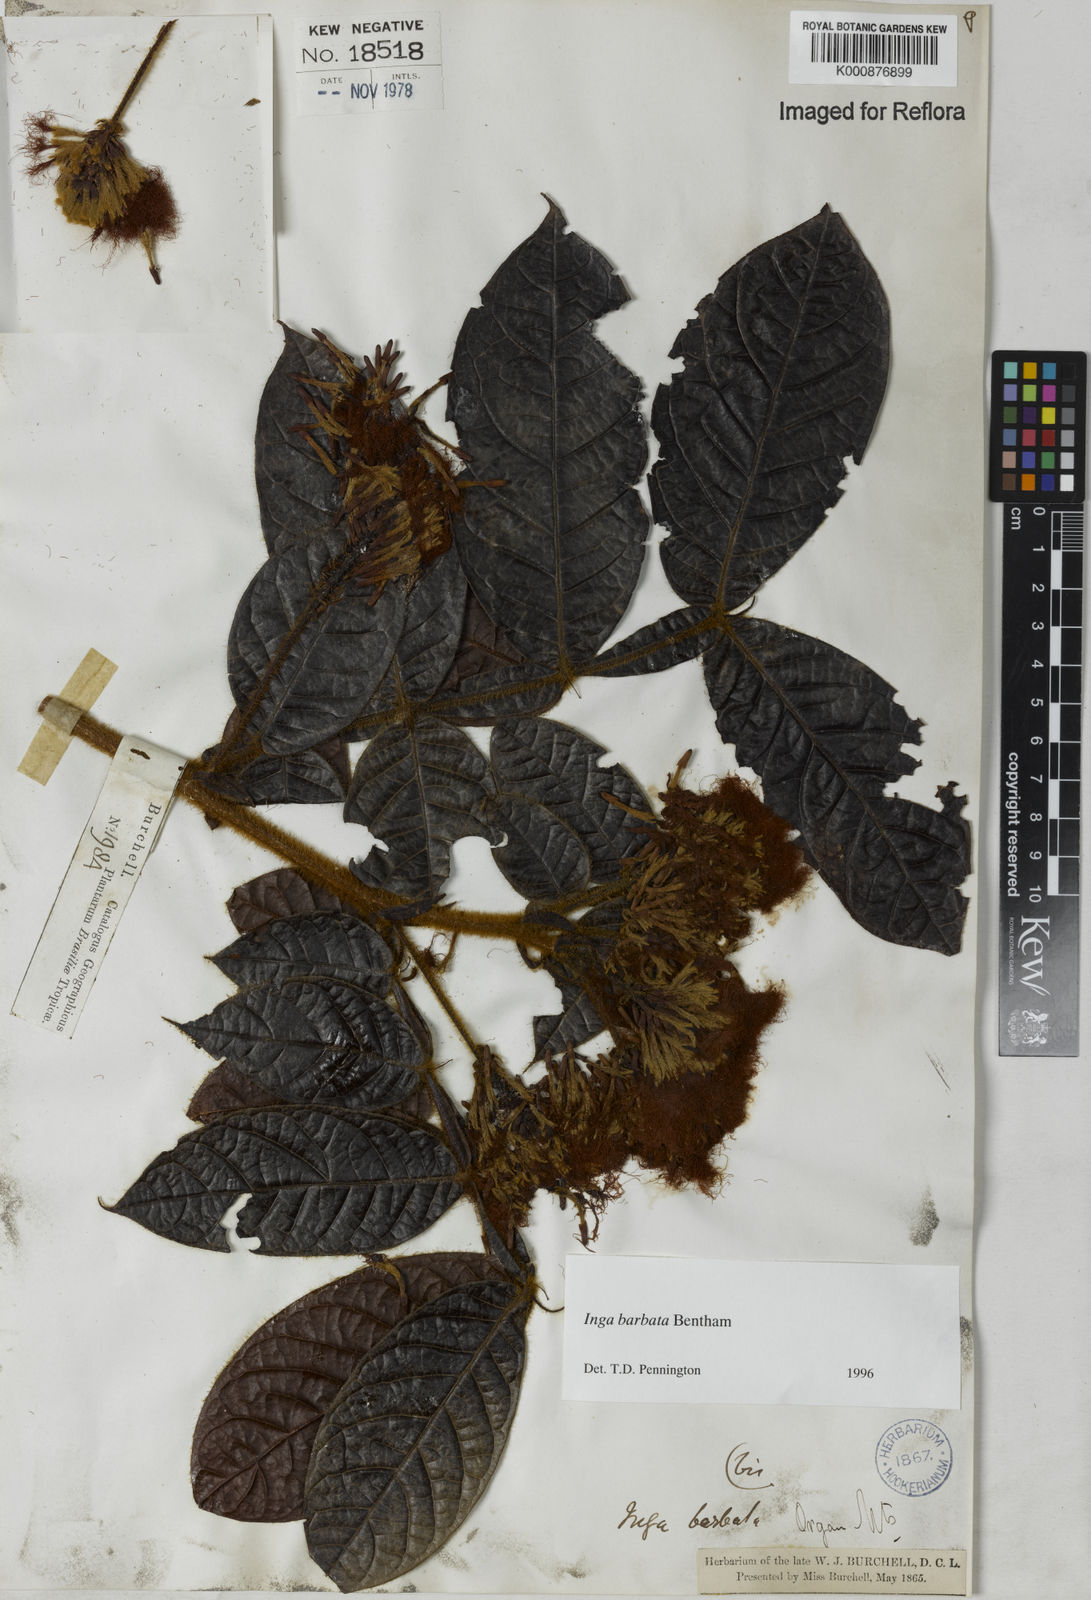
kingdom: Plantae
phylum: Tracheophyta
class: Magnoliopsida
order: Fabales
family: Fabaceae
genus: Inga
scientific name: Inga barbata
